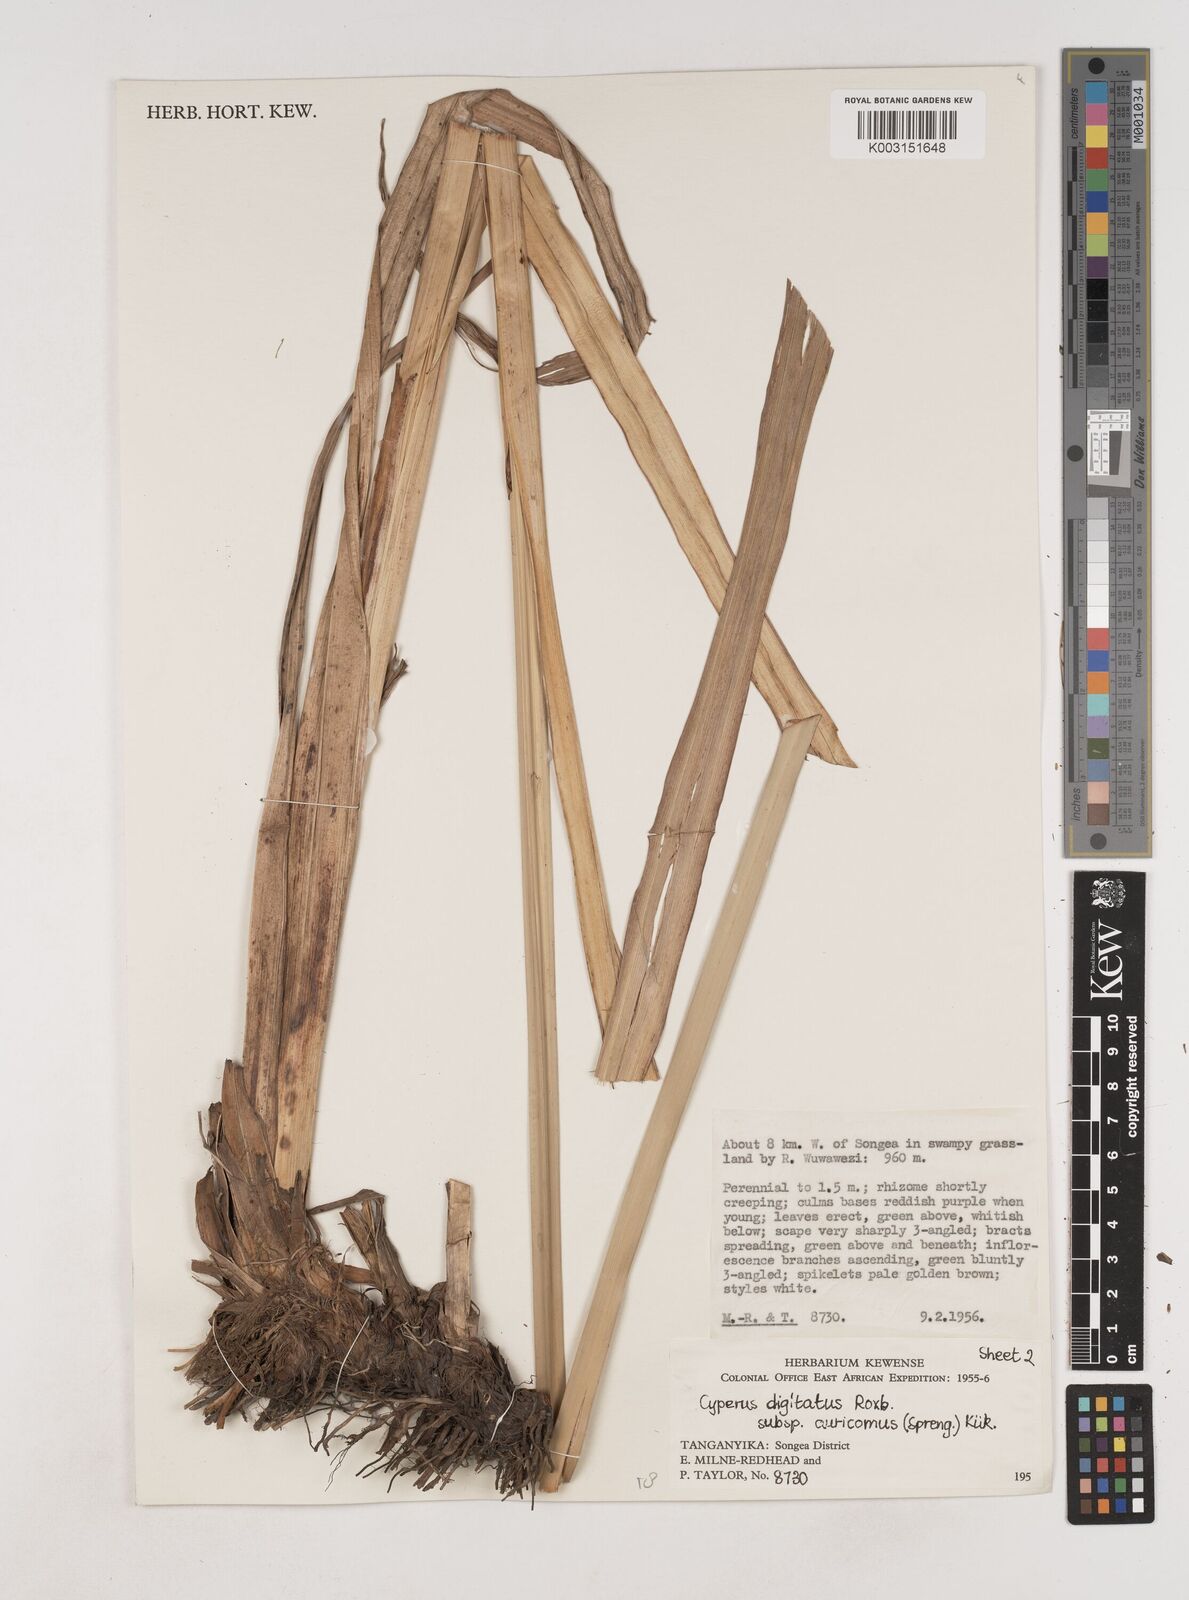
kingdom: Plantae
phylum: Tracheophyta
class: Liliopsida
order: Poales
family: Cyperaceae
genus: Cyperus
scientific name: Cyperus digitatus
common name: Finger flatsedge
